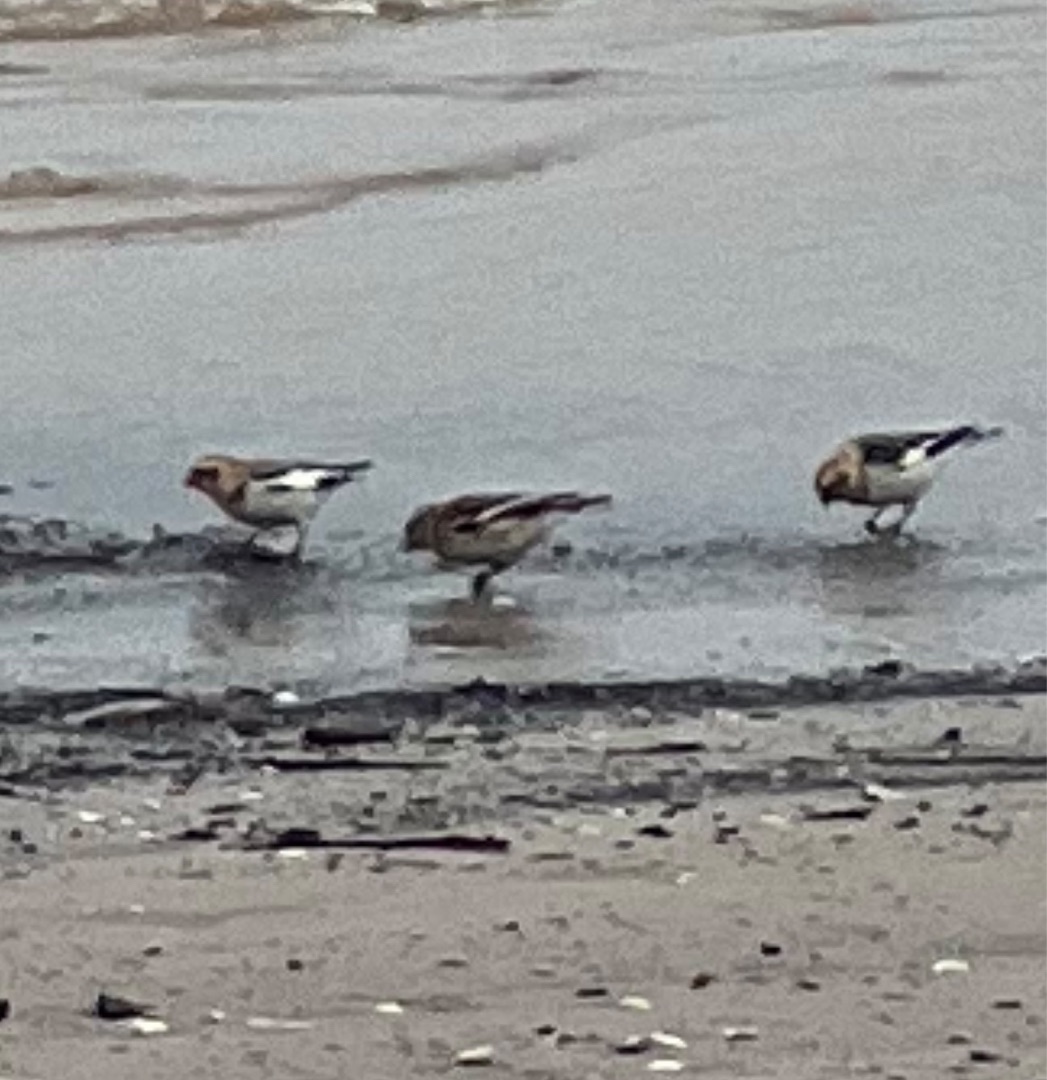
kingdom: Animalia
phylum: Chordata
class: Aves
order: Passeriformes
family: Calcariidae
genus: Plectrophenax
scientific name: Plectrophenax nivalis
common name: Snespurv
